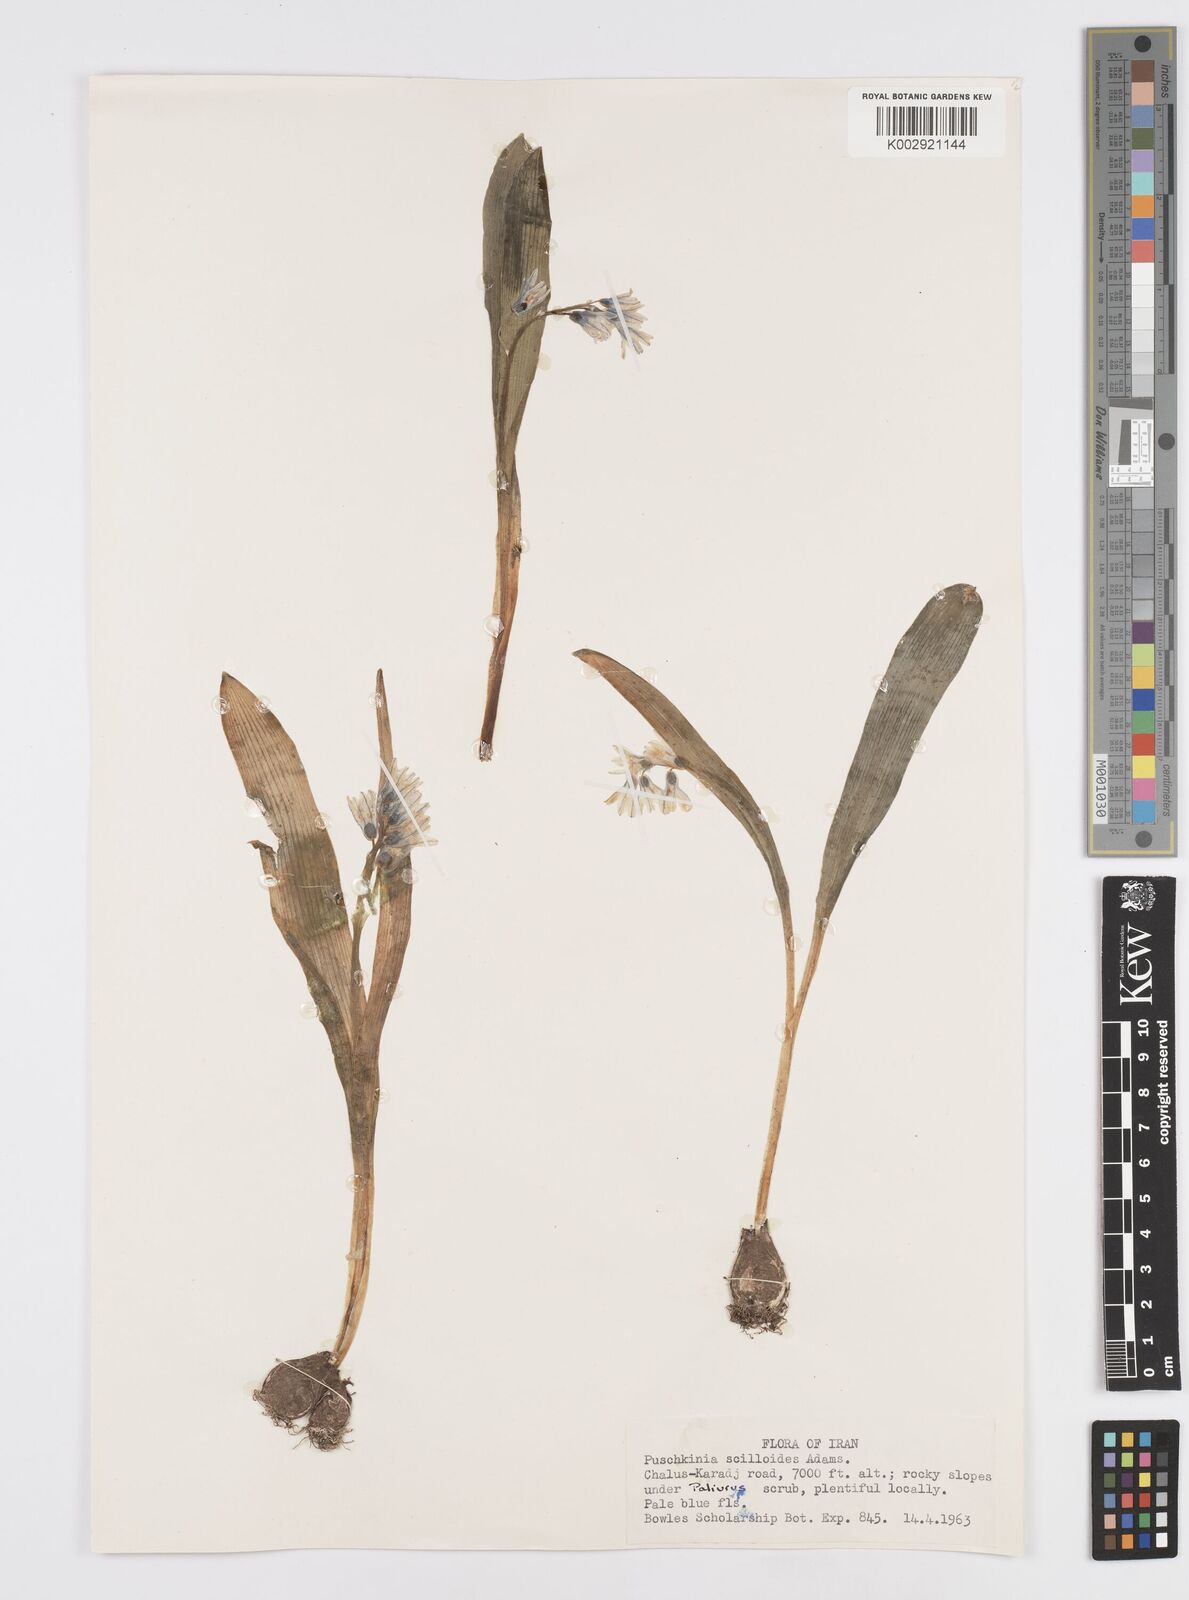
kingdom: Plantae
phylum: Tracheophyta
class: Liliopsida
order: Asparagales
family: Asparagaceae
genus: Puschkinia
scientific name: Puschkinia scilloides
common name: Striped squill
